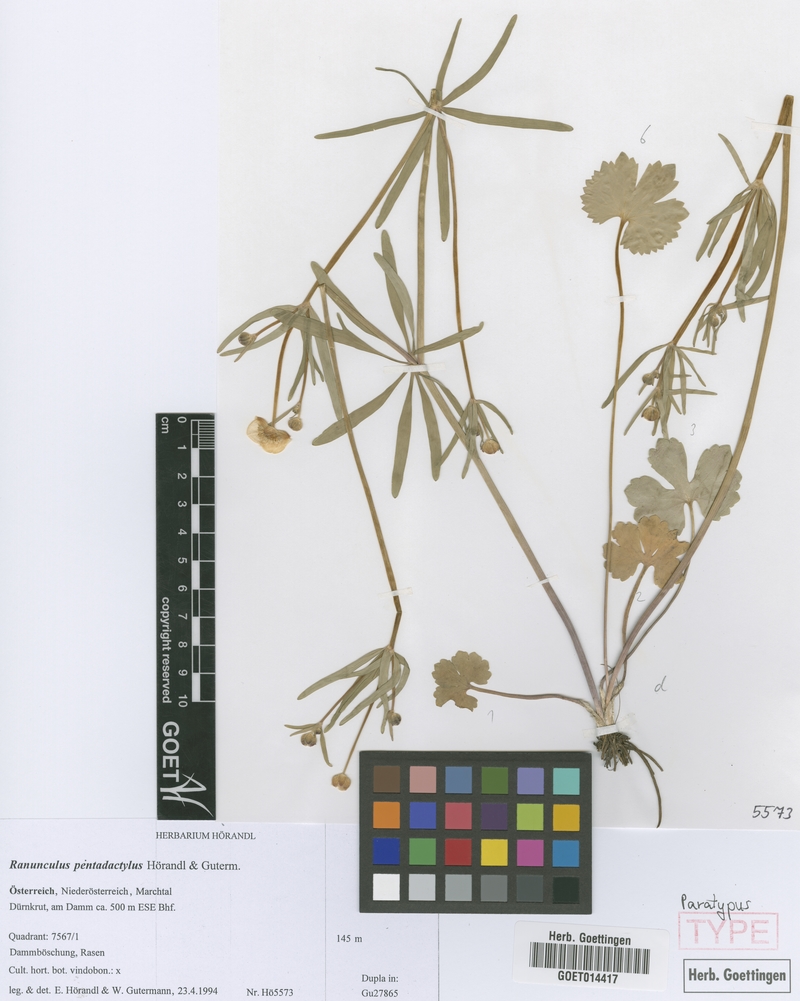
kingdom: Plantae
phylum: Tracheophyta
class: Magnoliopsida
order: Ranunculales
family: Ranunculaceae
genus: Ranunculus
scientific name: Ranunculus pentadactylus
